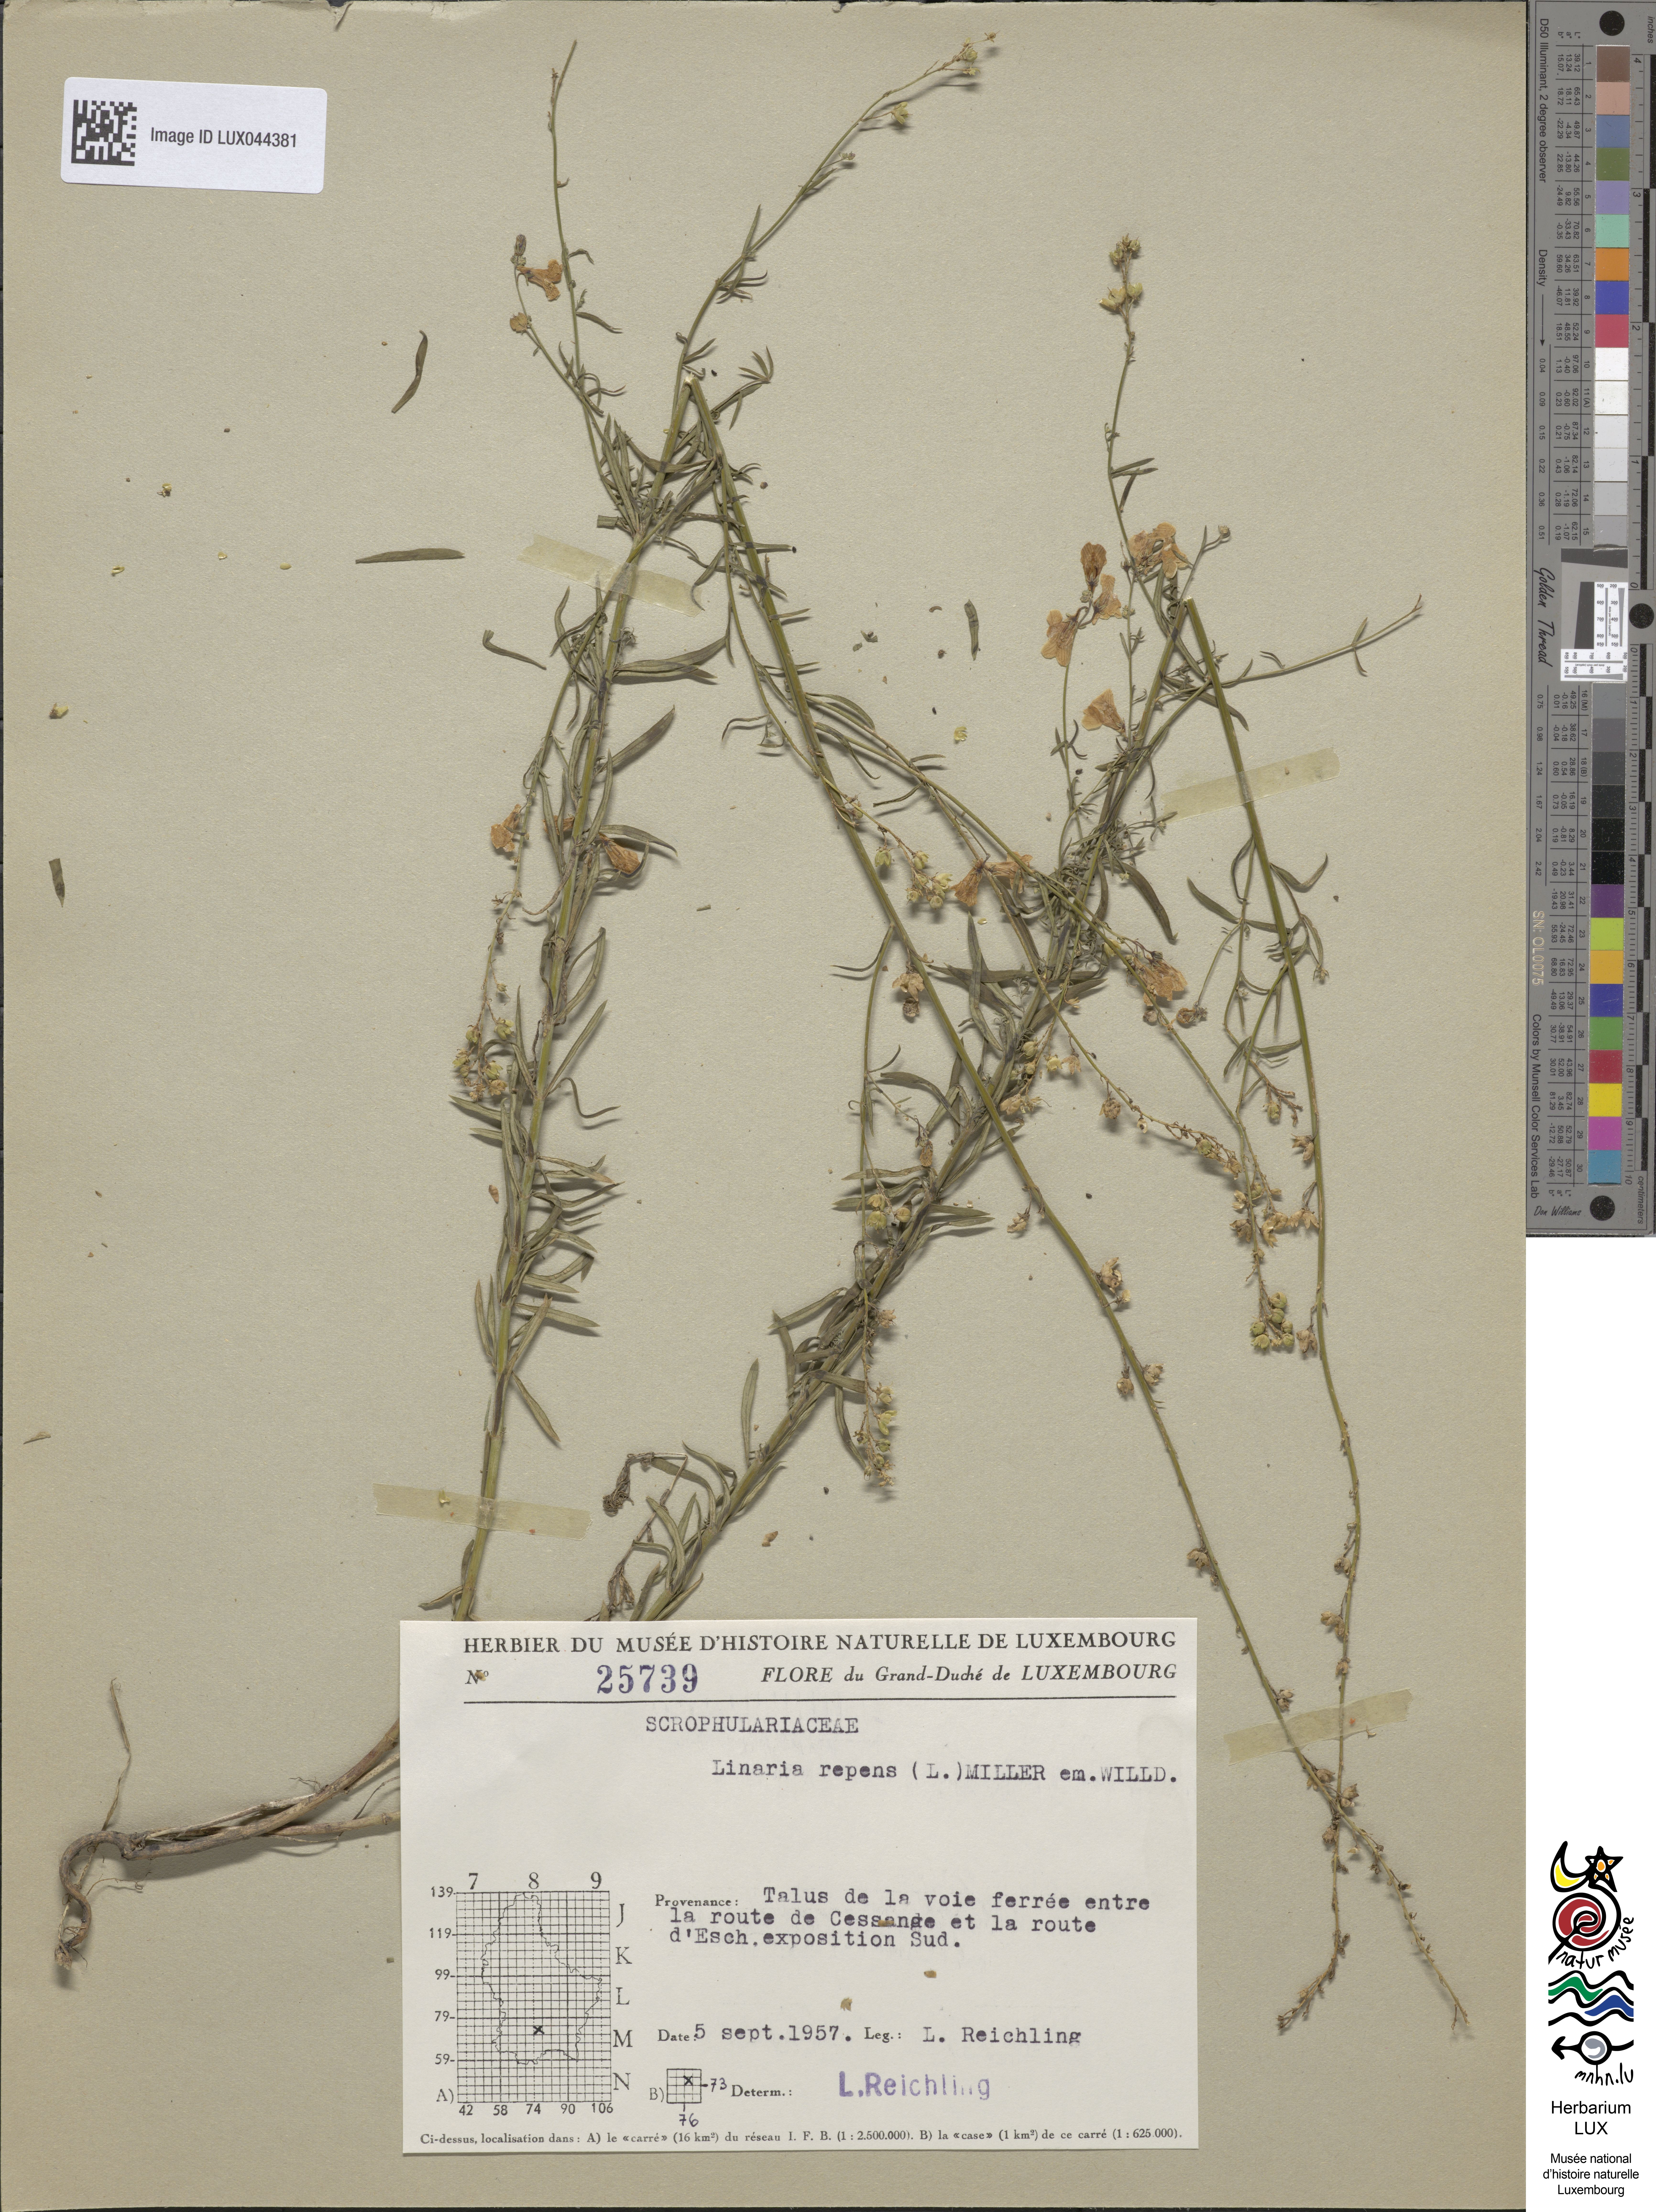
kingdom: Plantae
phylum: Tracheophyta
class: Magnoliopsida
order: Lamiales
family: Plantaginaceae
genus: Linaria
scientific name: Linaria repens
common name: Pale toadflax
